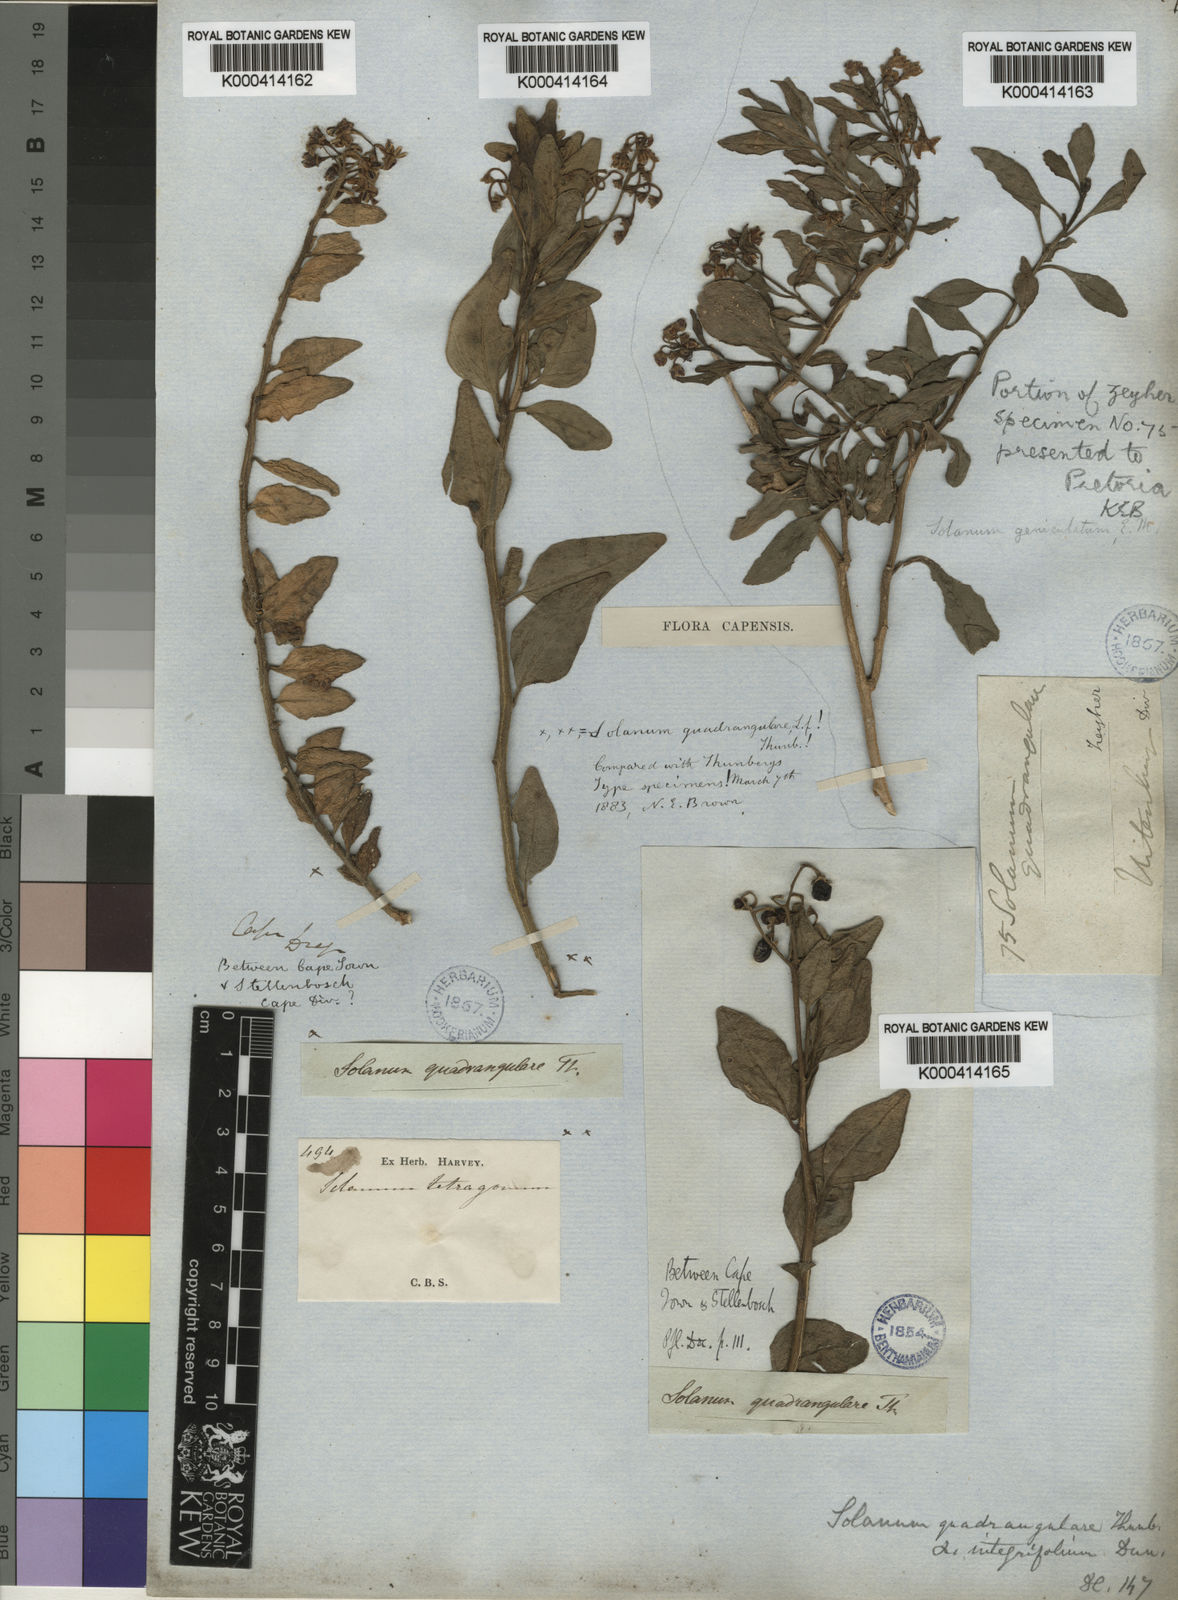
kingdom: Plantae
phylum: Tracheophyta
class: Magnoliopsida
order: Solanales
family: Solanaceae
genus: Solanum
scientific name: Solanum africanum
